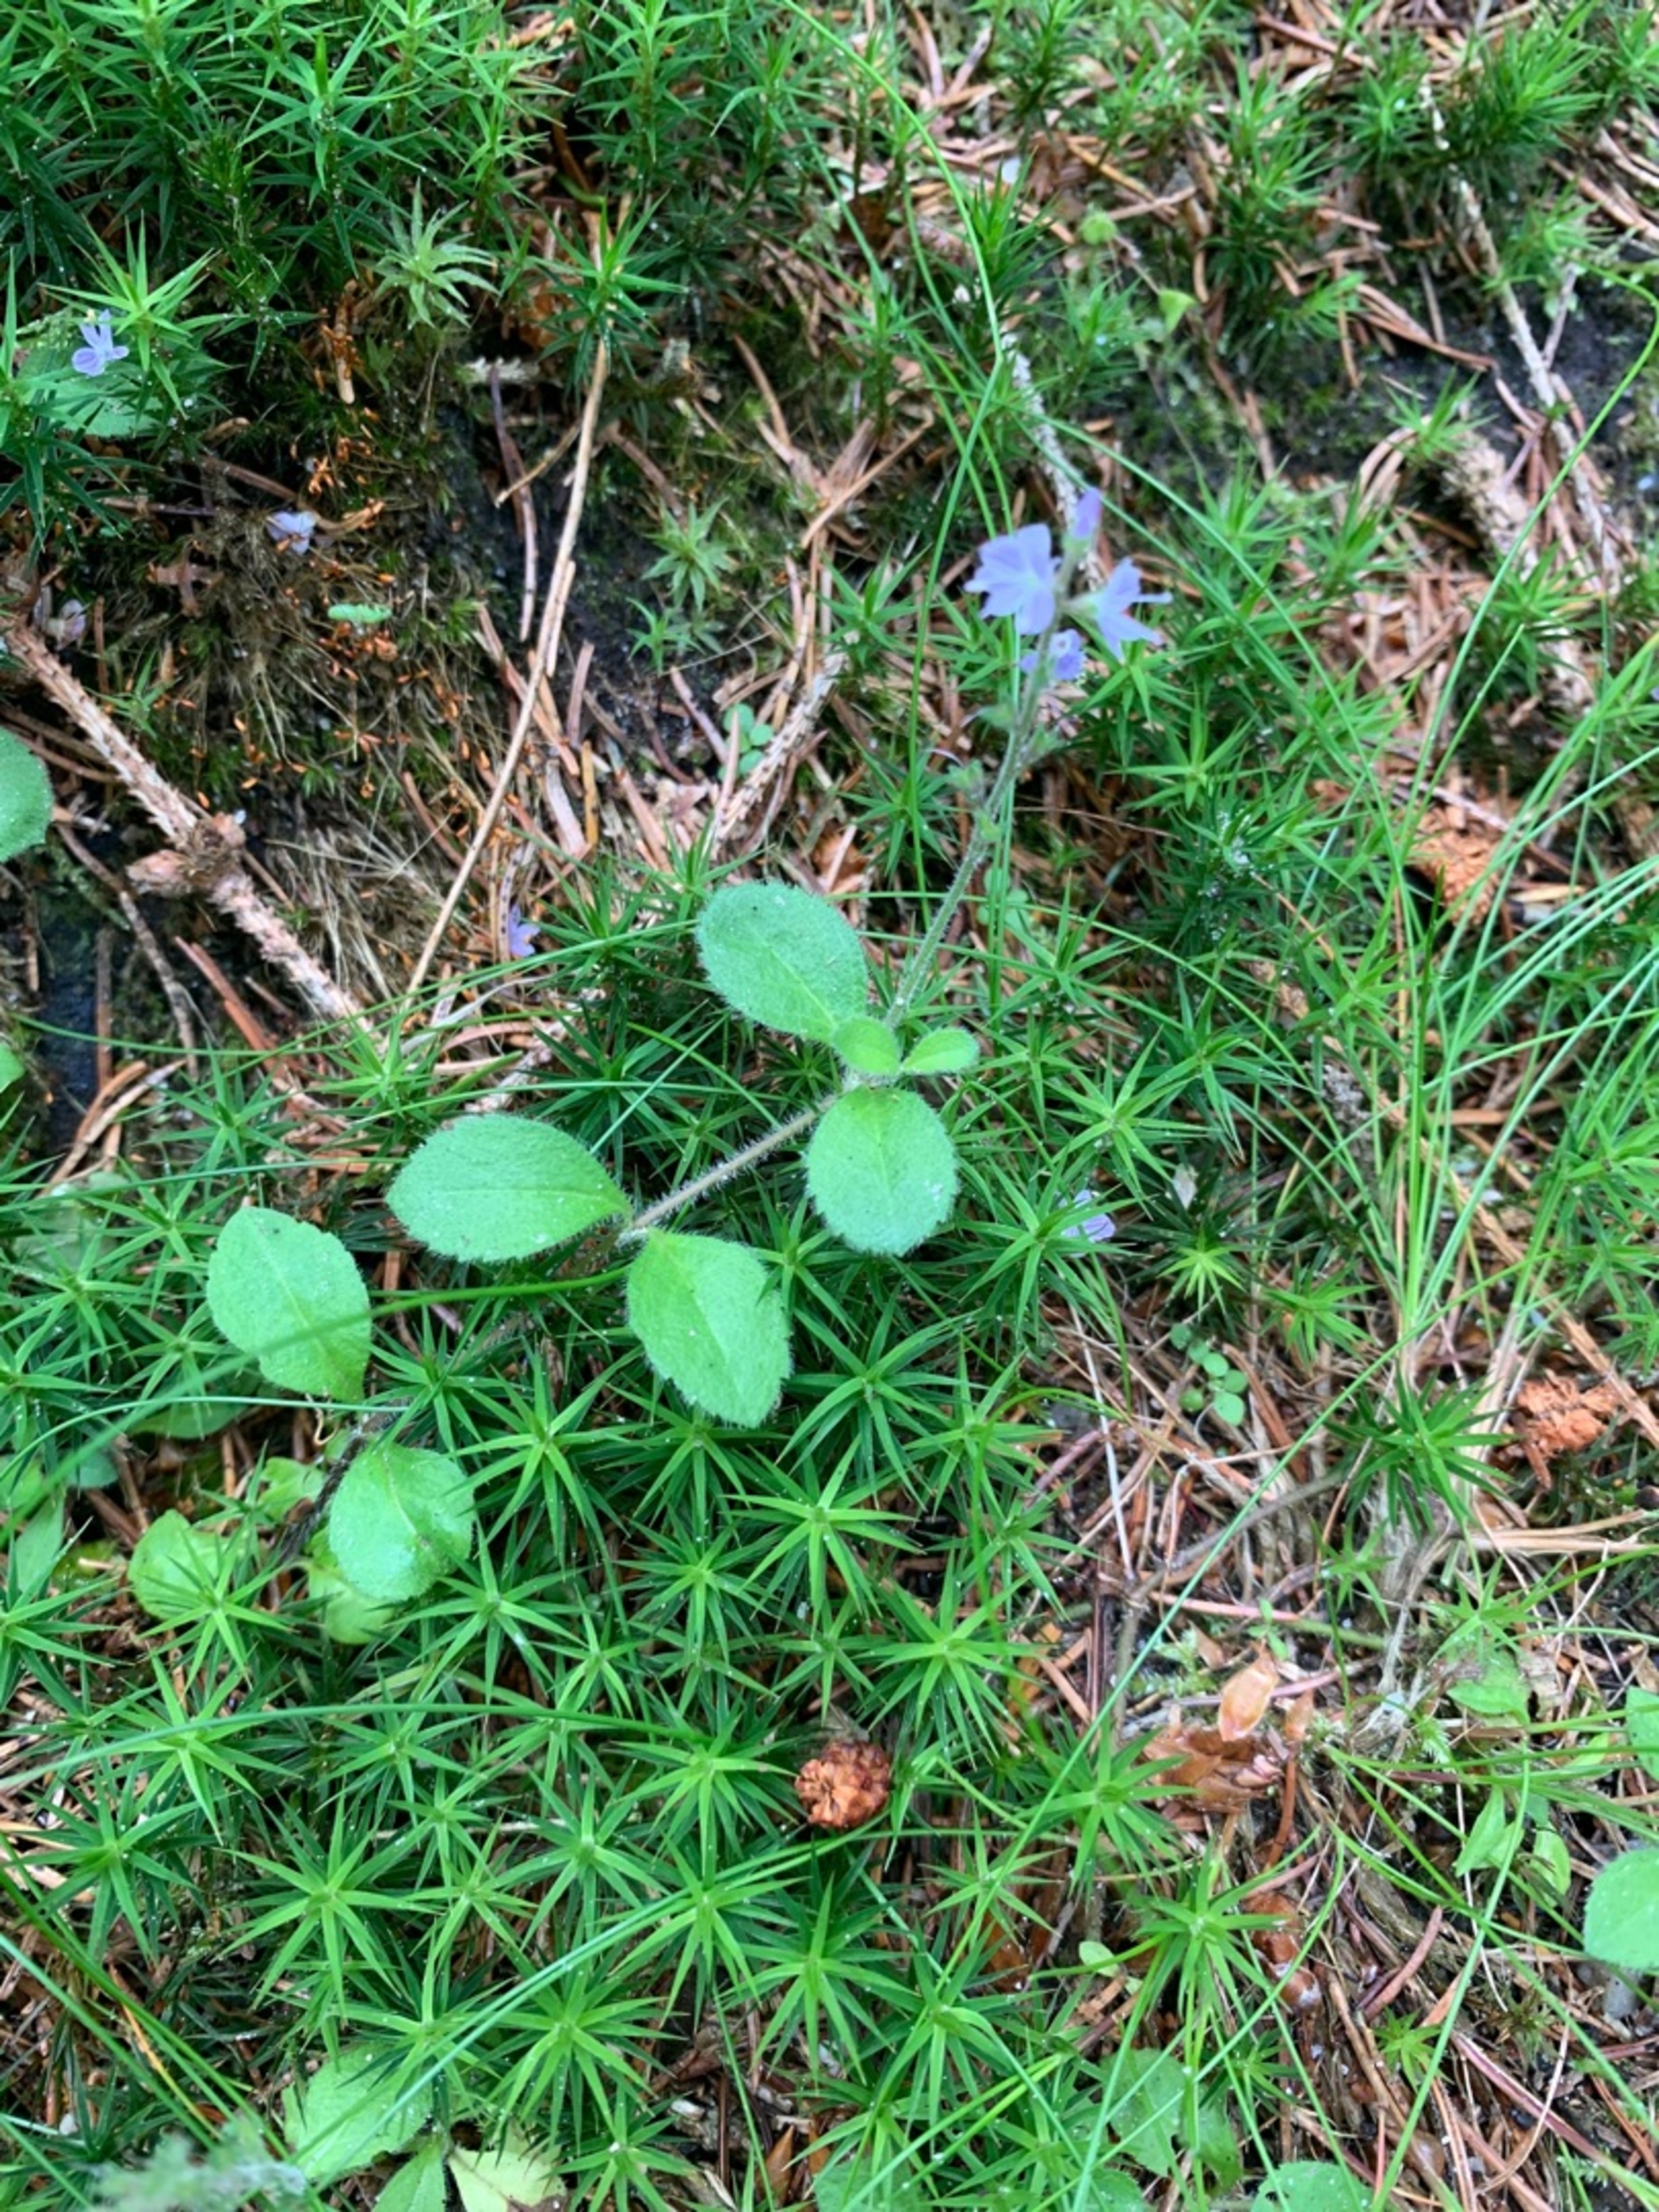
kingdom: Plantae
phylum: Tracheophyta
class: Magnoliopsida
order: Lamiales
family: Plantaginaceae
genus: Veronica
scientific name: Veronica officinalis
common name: Læge-ærenpris
